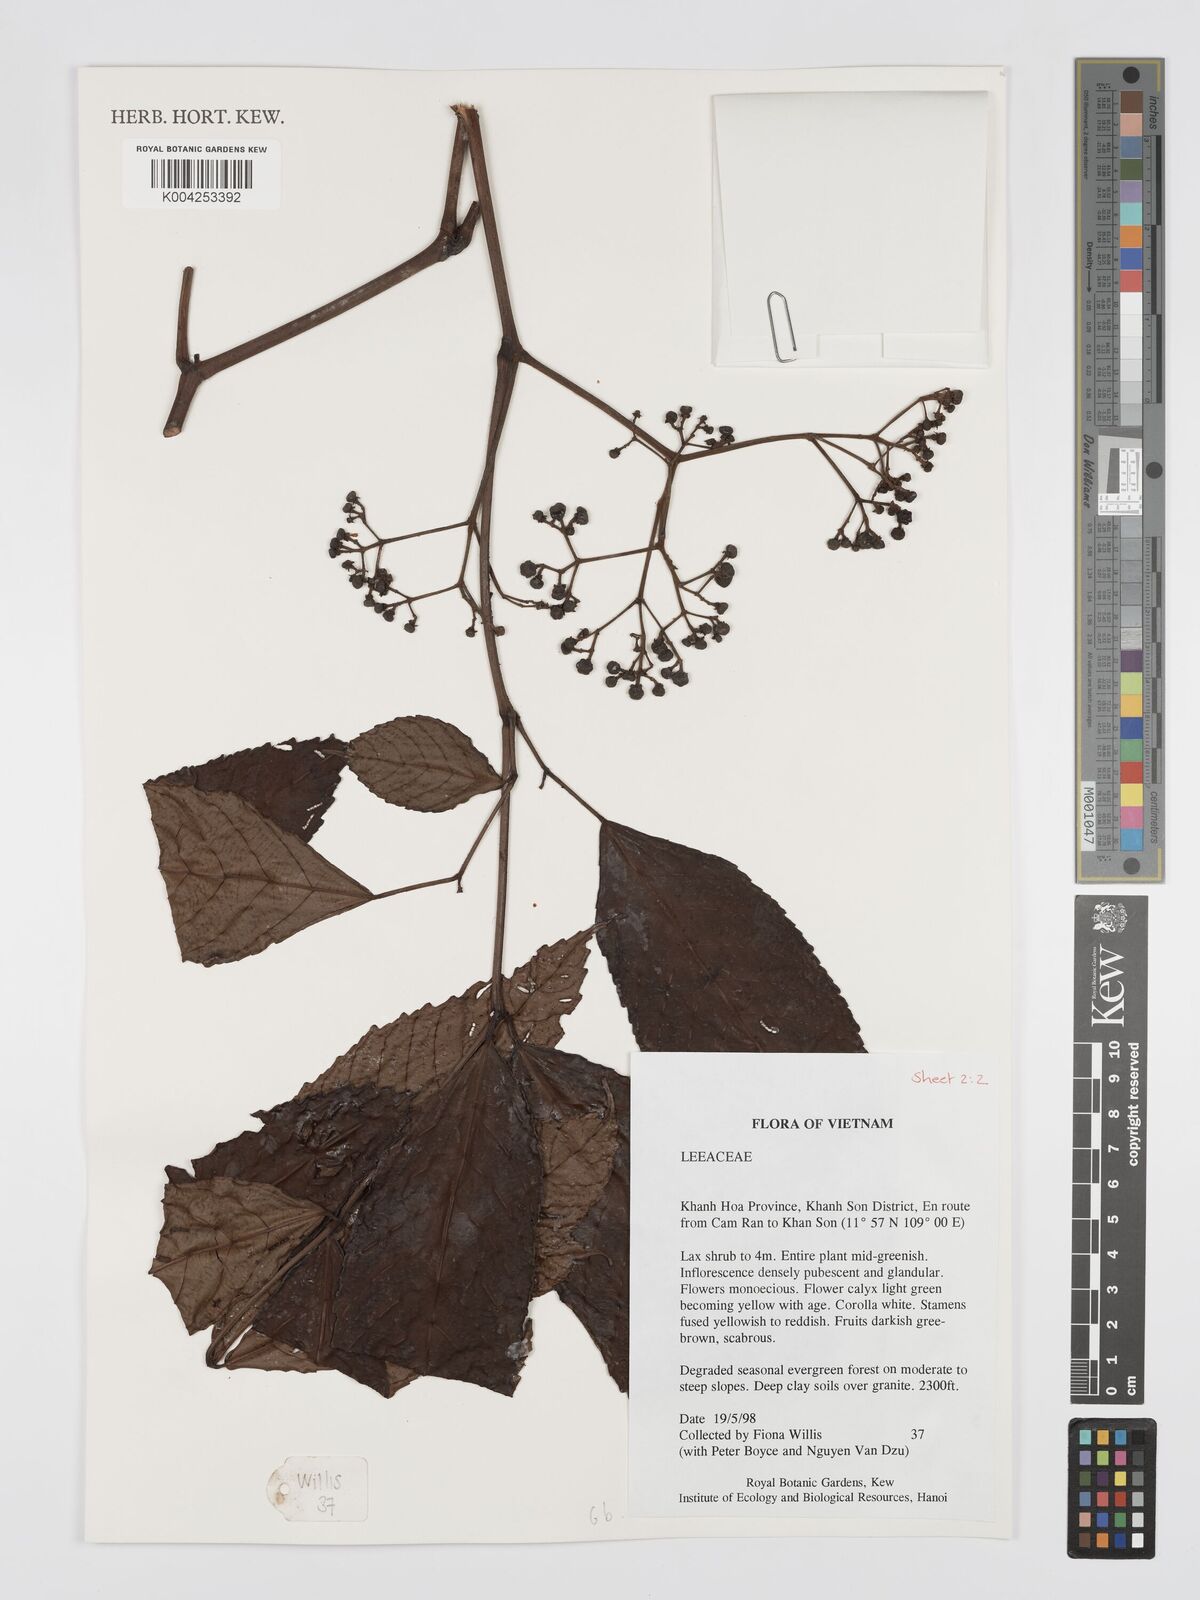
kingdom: Plantae
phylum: Tracheophyta
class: Magnoliopsida
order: Vitales
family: Vitaceae
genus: Leea
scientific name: Leea
